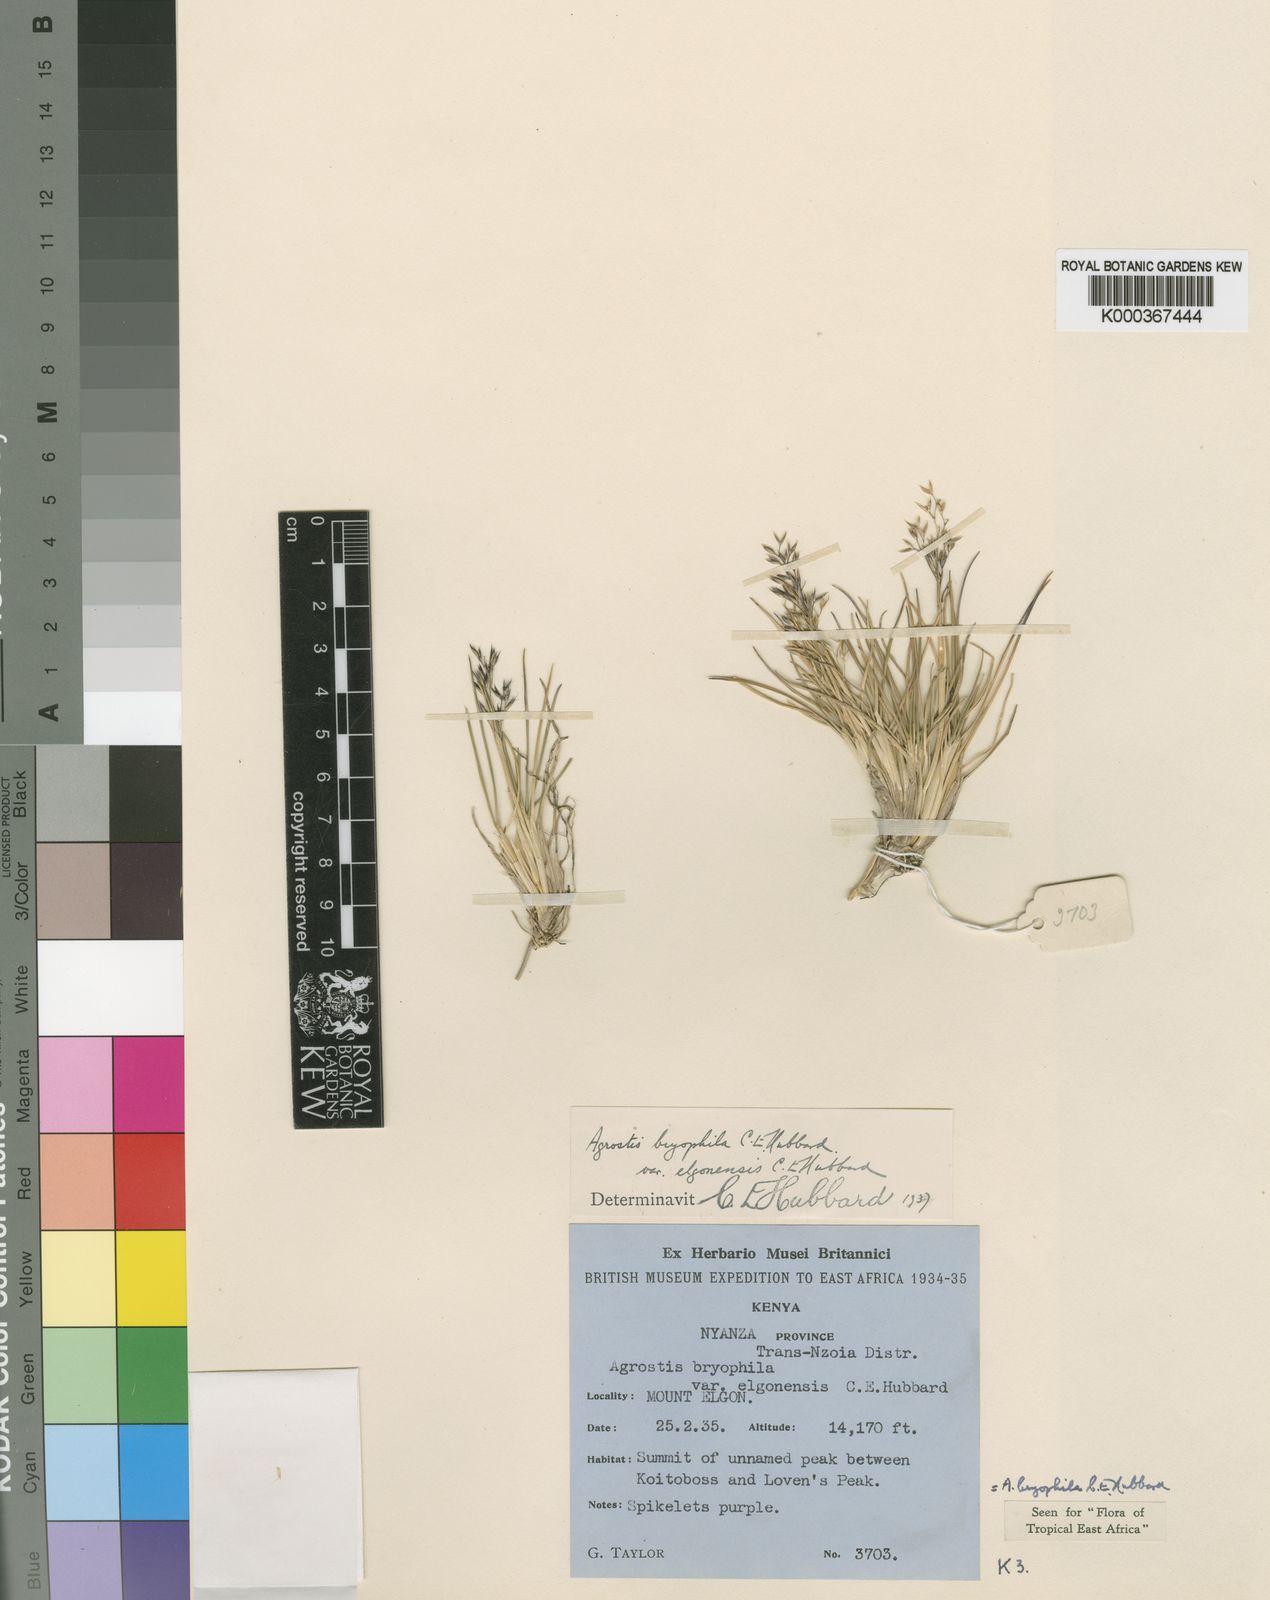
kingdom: Plantae
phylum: Tracheophyta
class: Liliopsida
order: Poales
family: Poaceae
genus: Agrostis
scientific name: Agrostis gracilifolia
